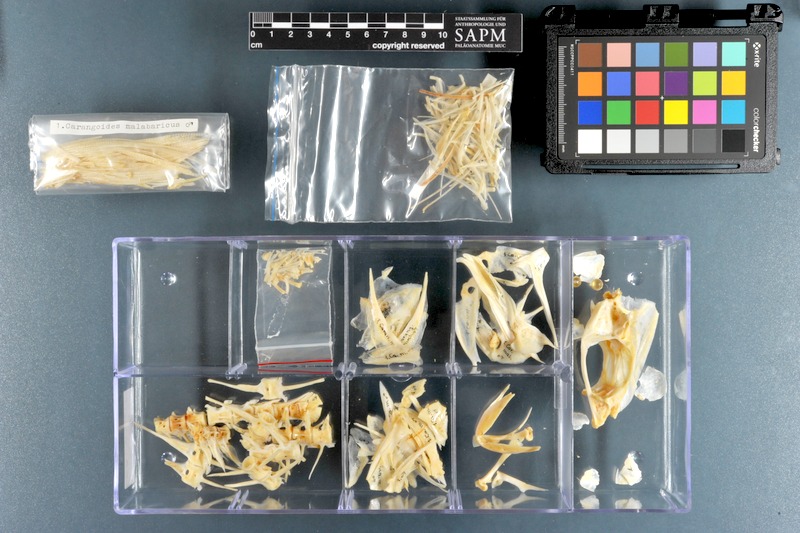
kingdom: Animalia
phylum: Chordata
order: Perciformes
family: Carangidae
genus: Carangoides
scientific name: Carangoides malabaricus
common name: Malabar trevally
